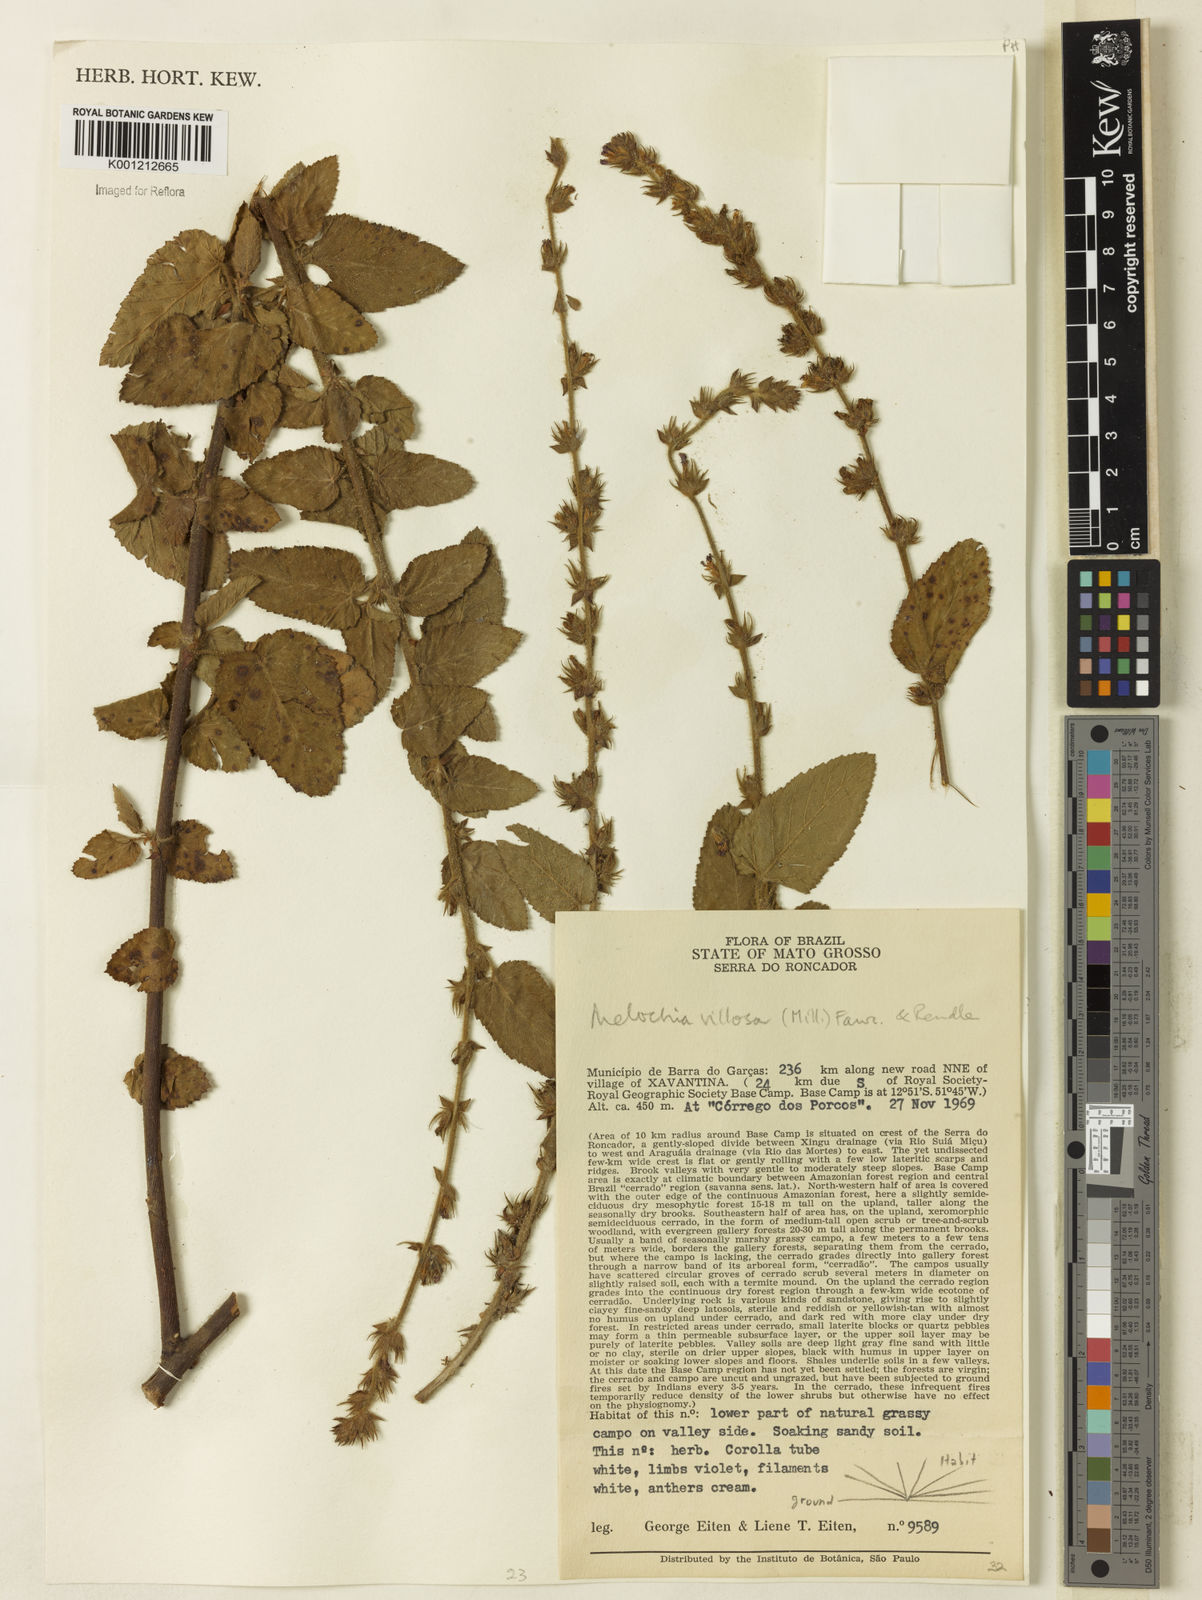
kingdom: Plantae
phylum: Tracheophyta
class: Magnoliopsida
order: Malvales
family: Malvaceae
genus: Melochia
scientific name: Melochia spicata
